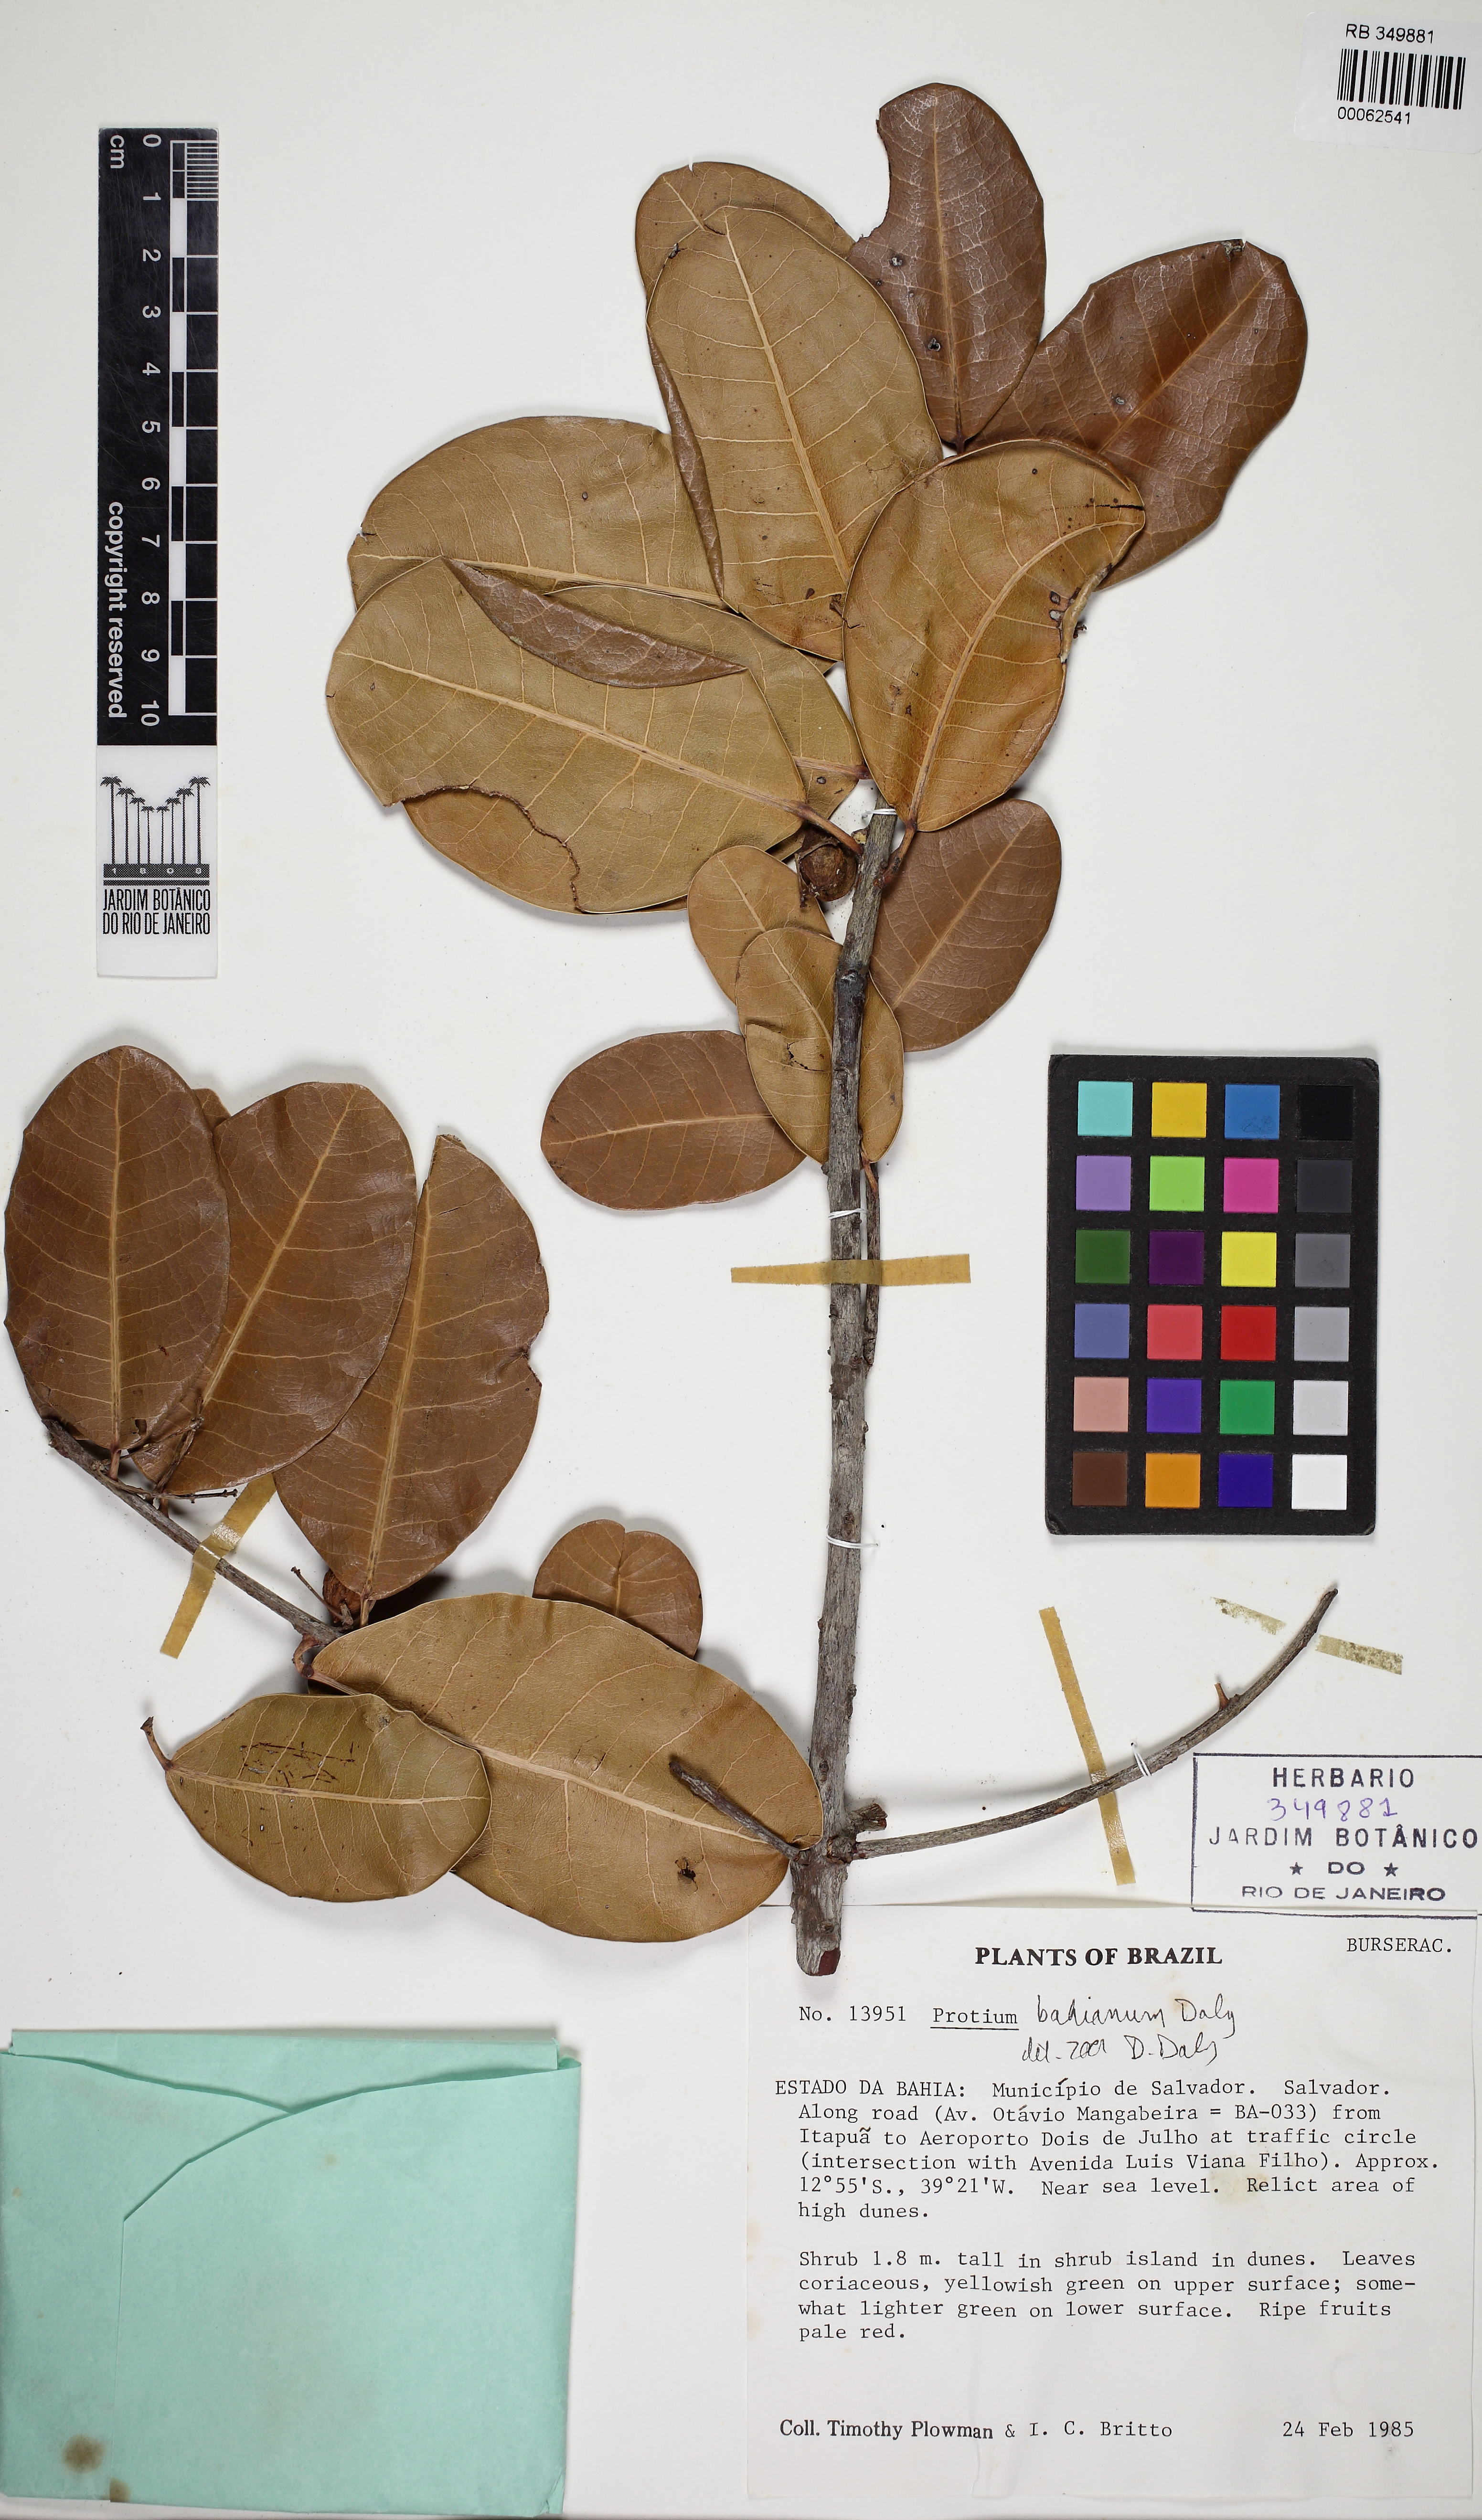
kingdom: Plantae
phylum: Tracheophyta
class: Magnoliopsida
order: Sapindales
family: Burseraceae
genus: Protium
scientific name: Protium bahianum
